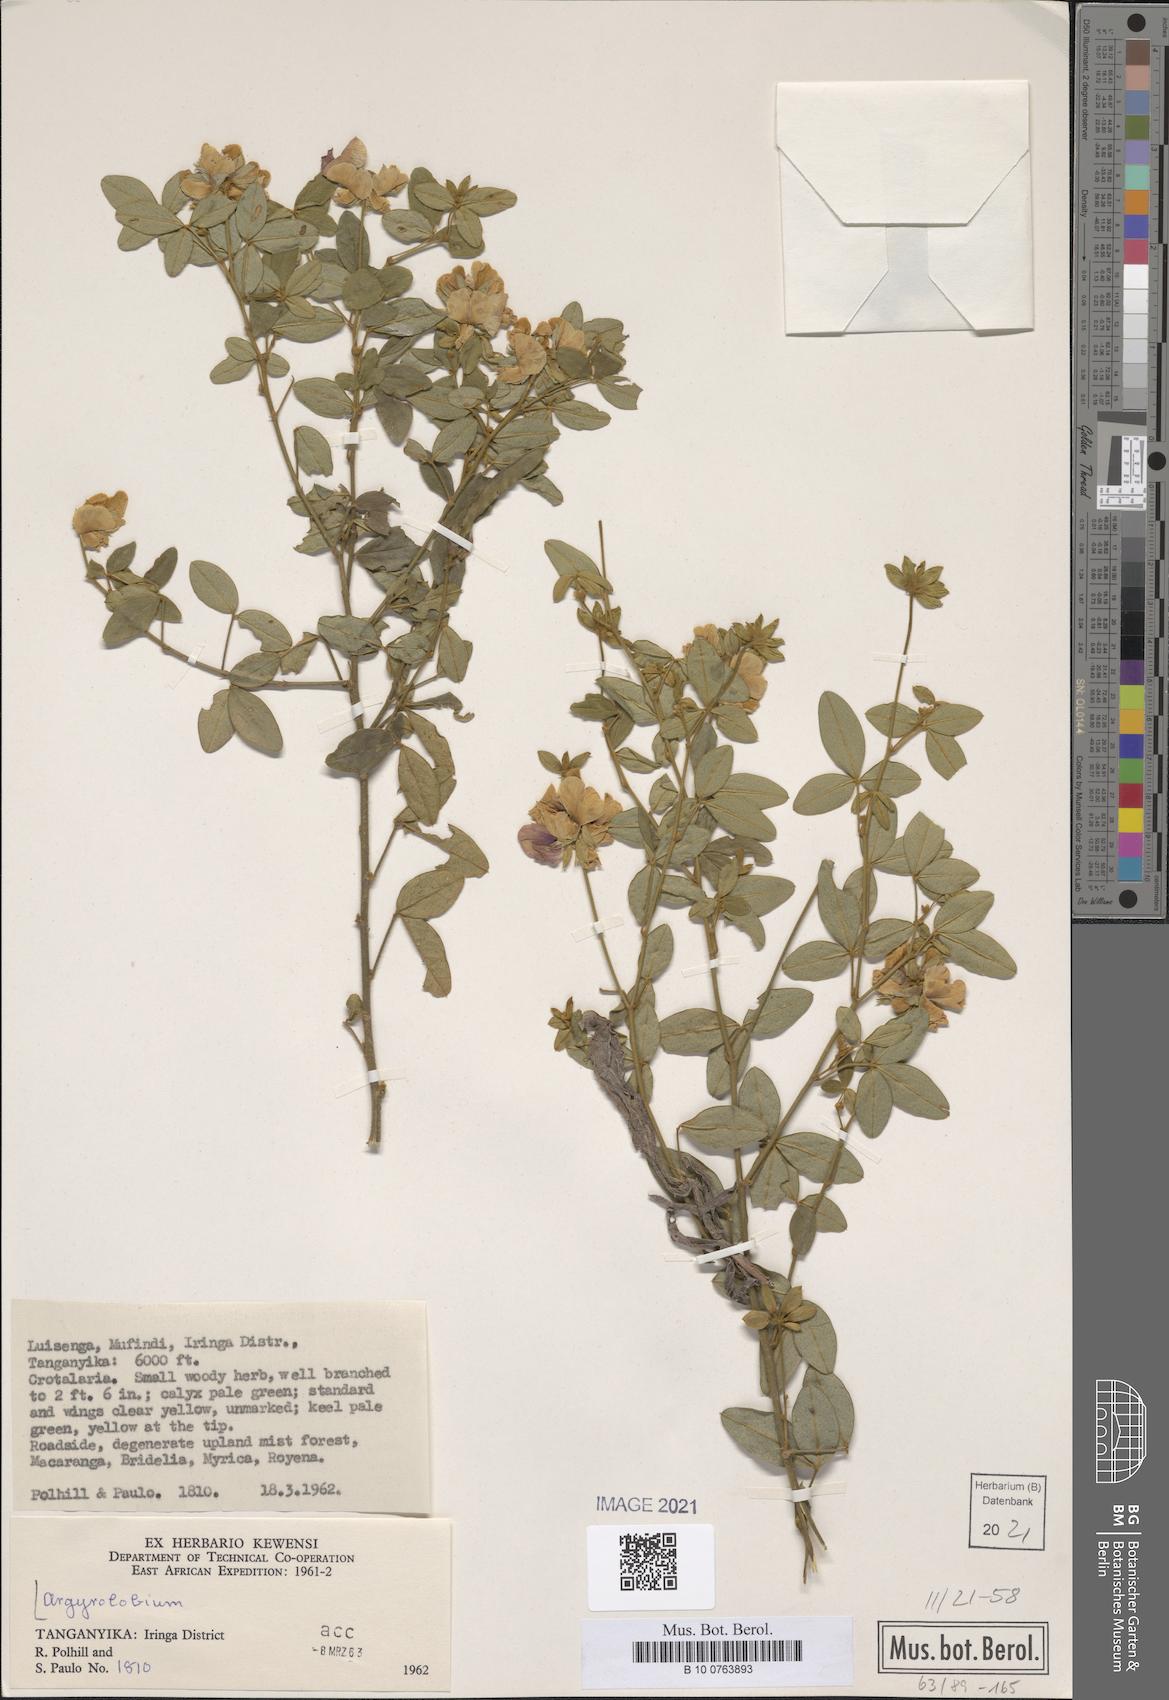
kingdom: Plantae
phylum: Tracheophyta
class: Magnoliopsida
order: Fabales
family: Fabaceae
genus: Argyrolobium
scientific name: Argyrolobium
